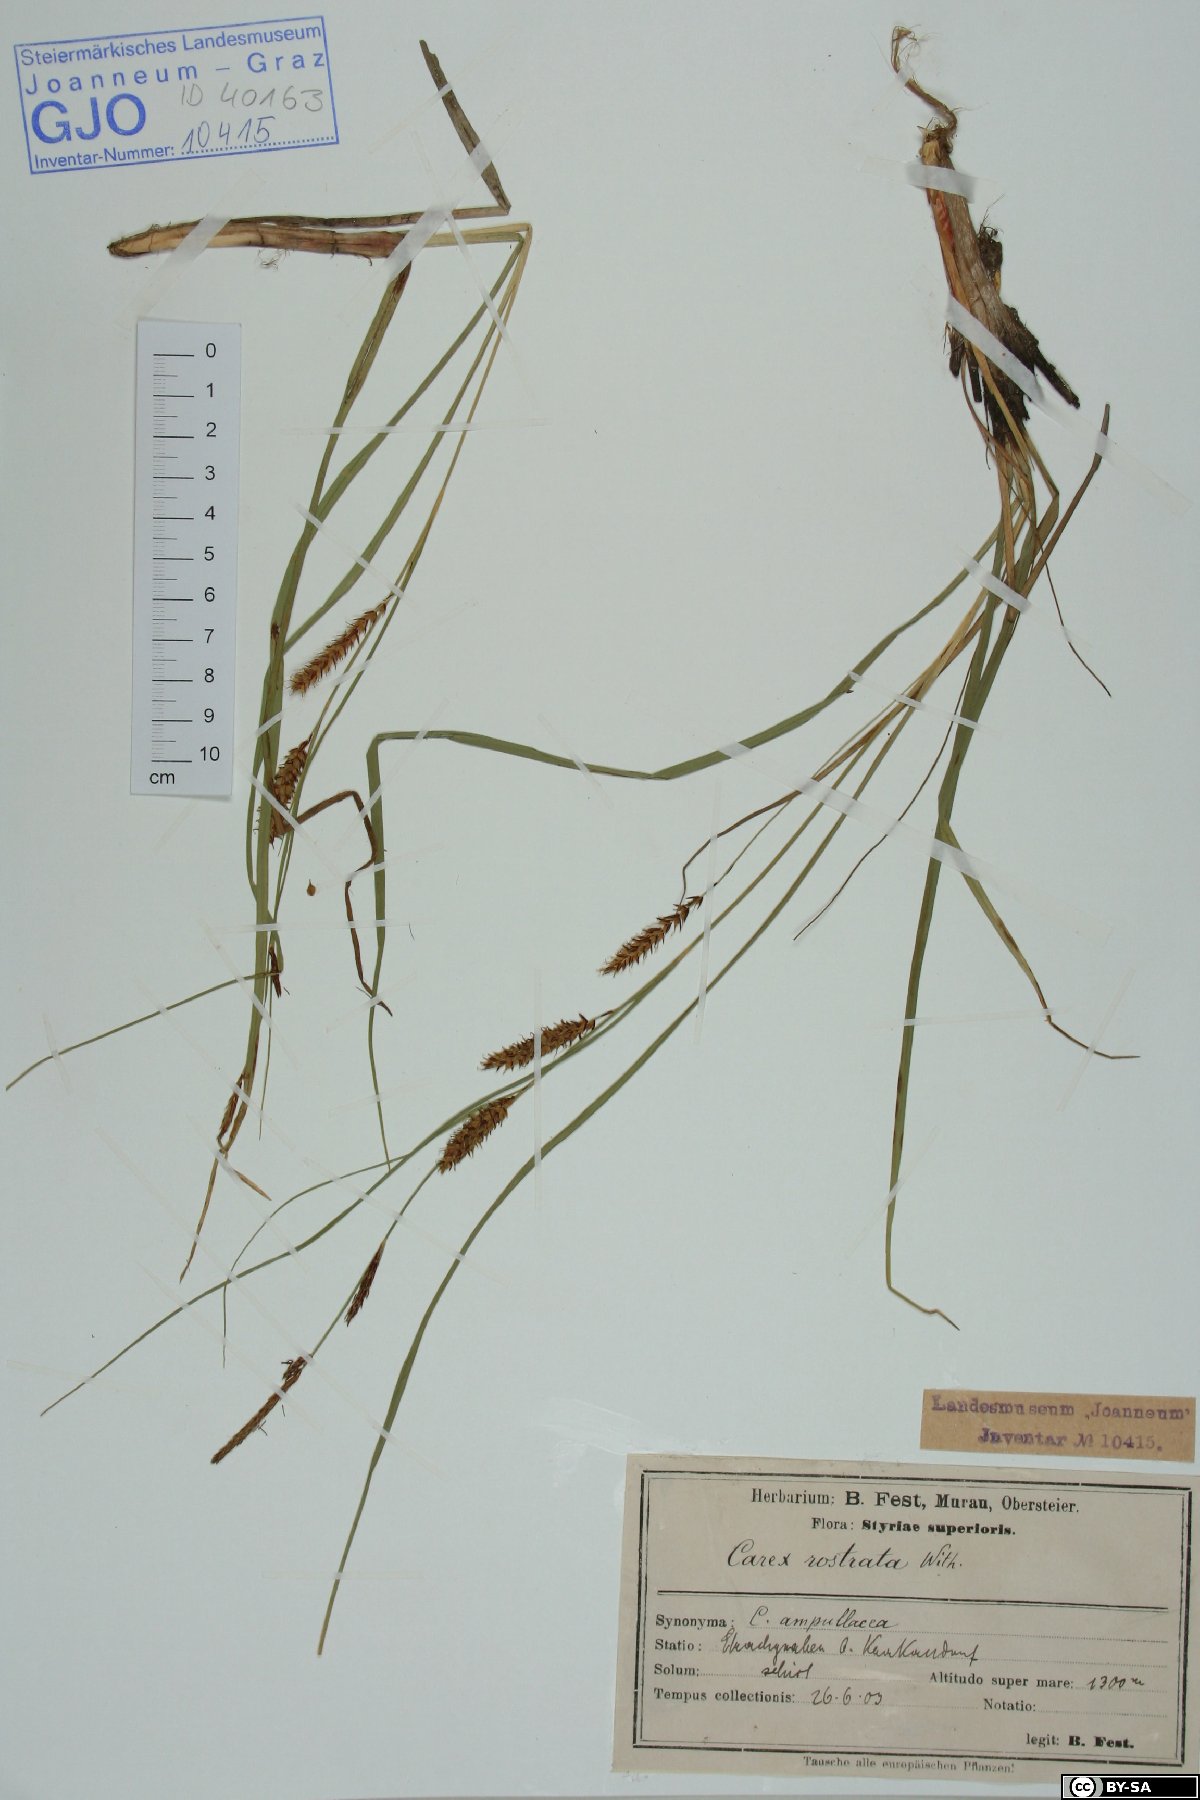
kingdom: Plantae
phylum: Tracheophyta
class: Liliopsida
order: Poales
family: Cyperaceae
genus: Carex
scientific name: Carex rostrata
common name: Bottle sedge
